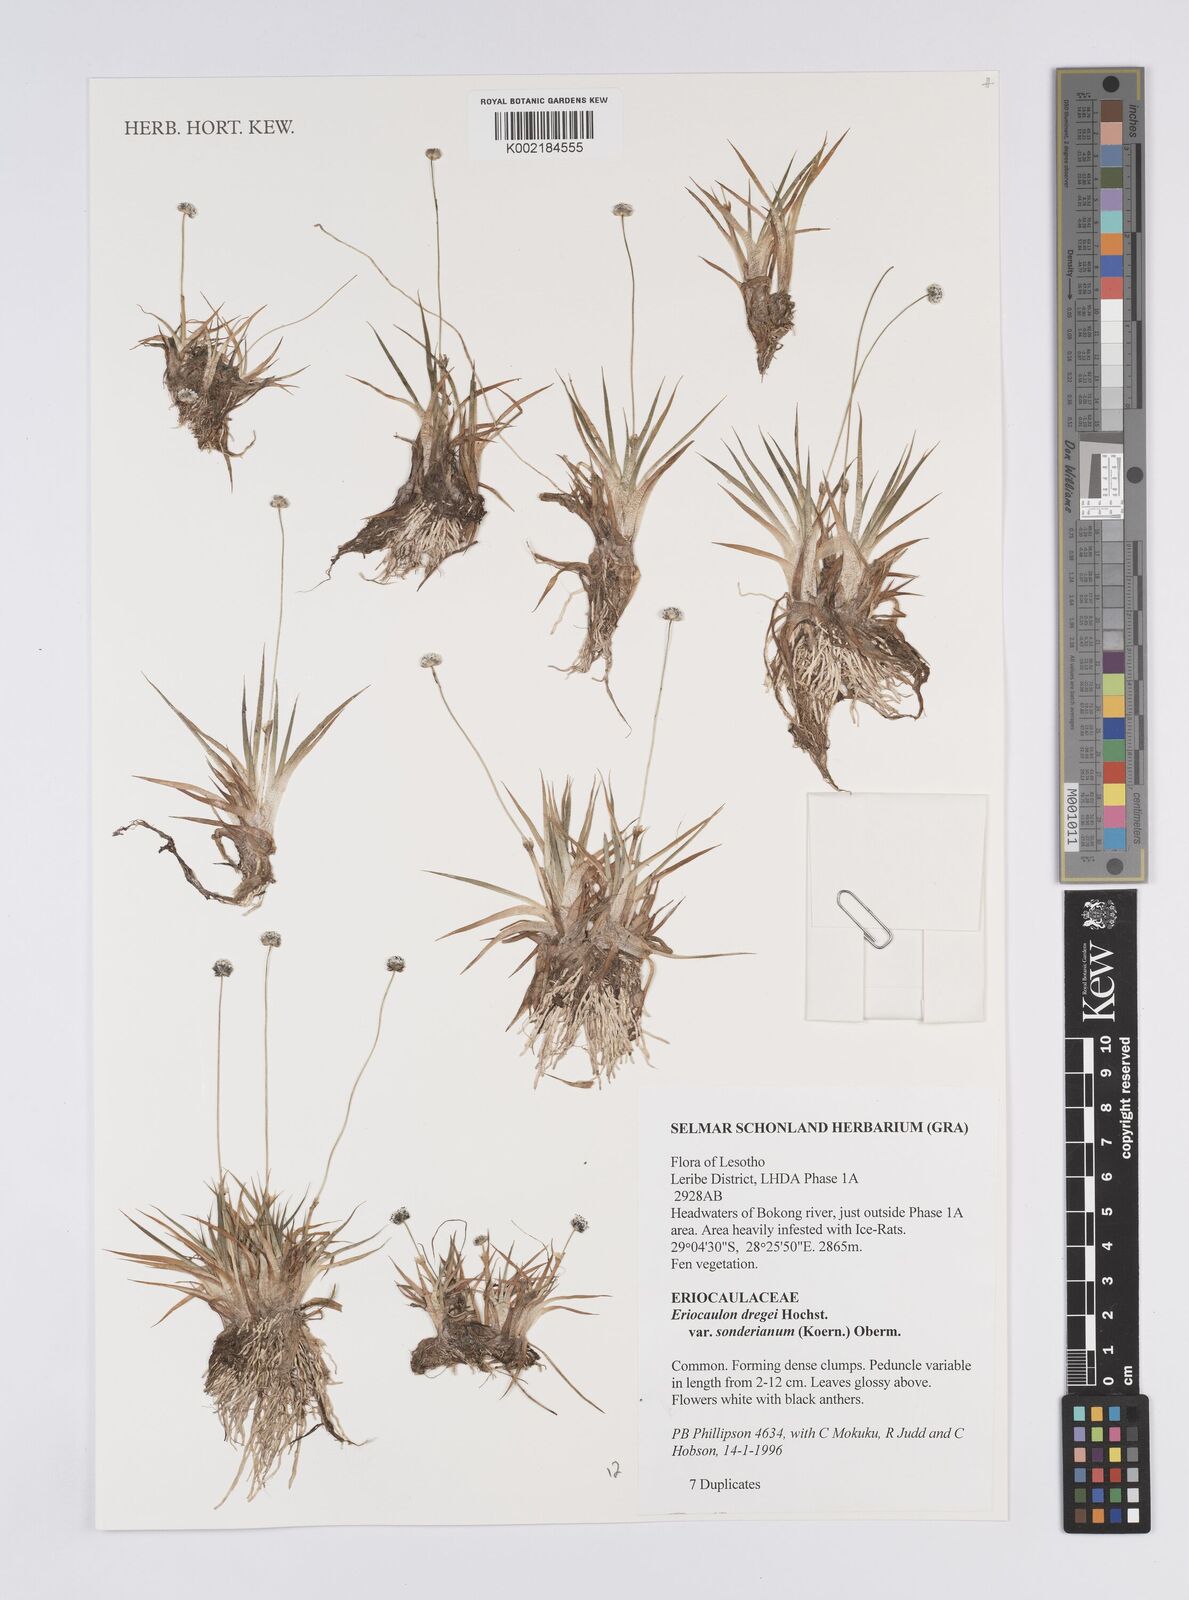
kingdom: Plantae
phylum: Tracheophyta
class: Liliopsida
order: Poales
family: Eriocaulaceae
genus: Eriocaulon
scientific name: Eriocaulon sonderianum
